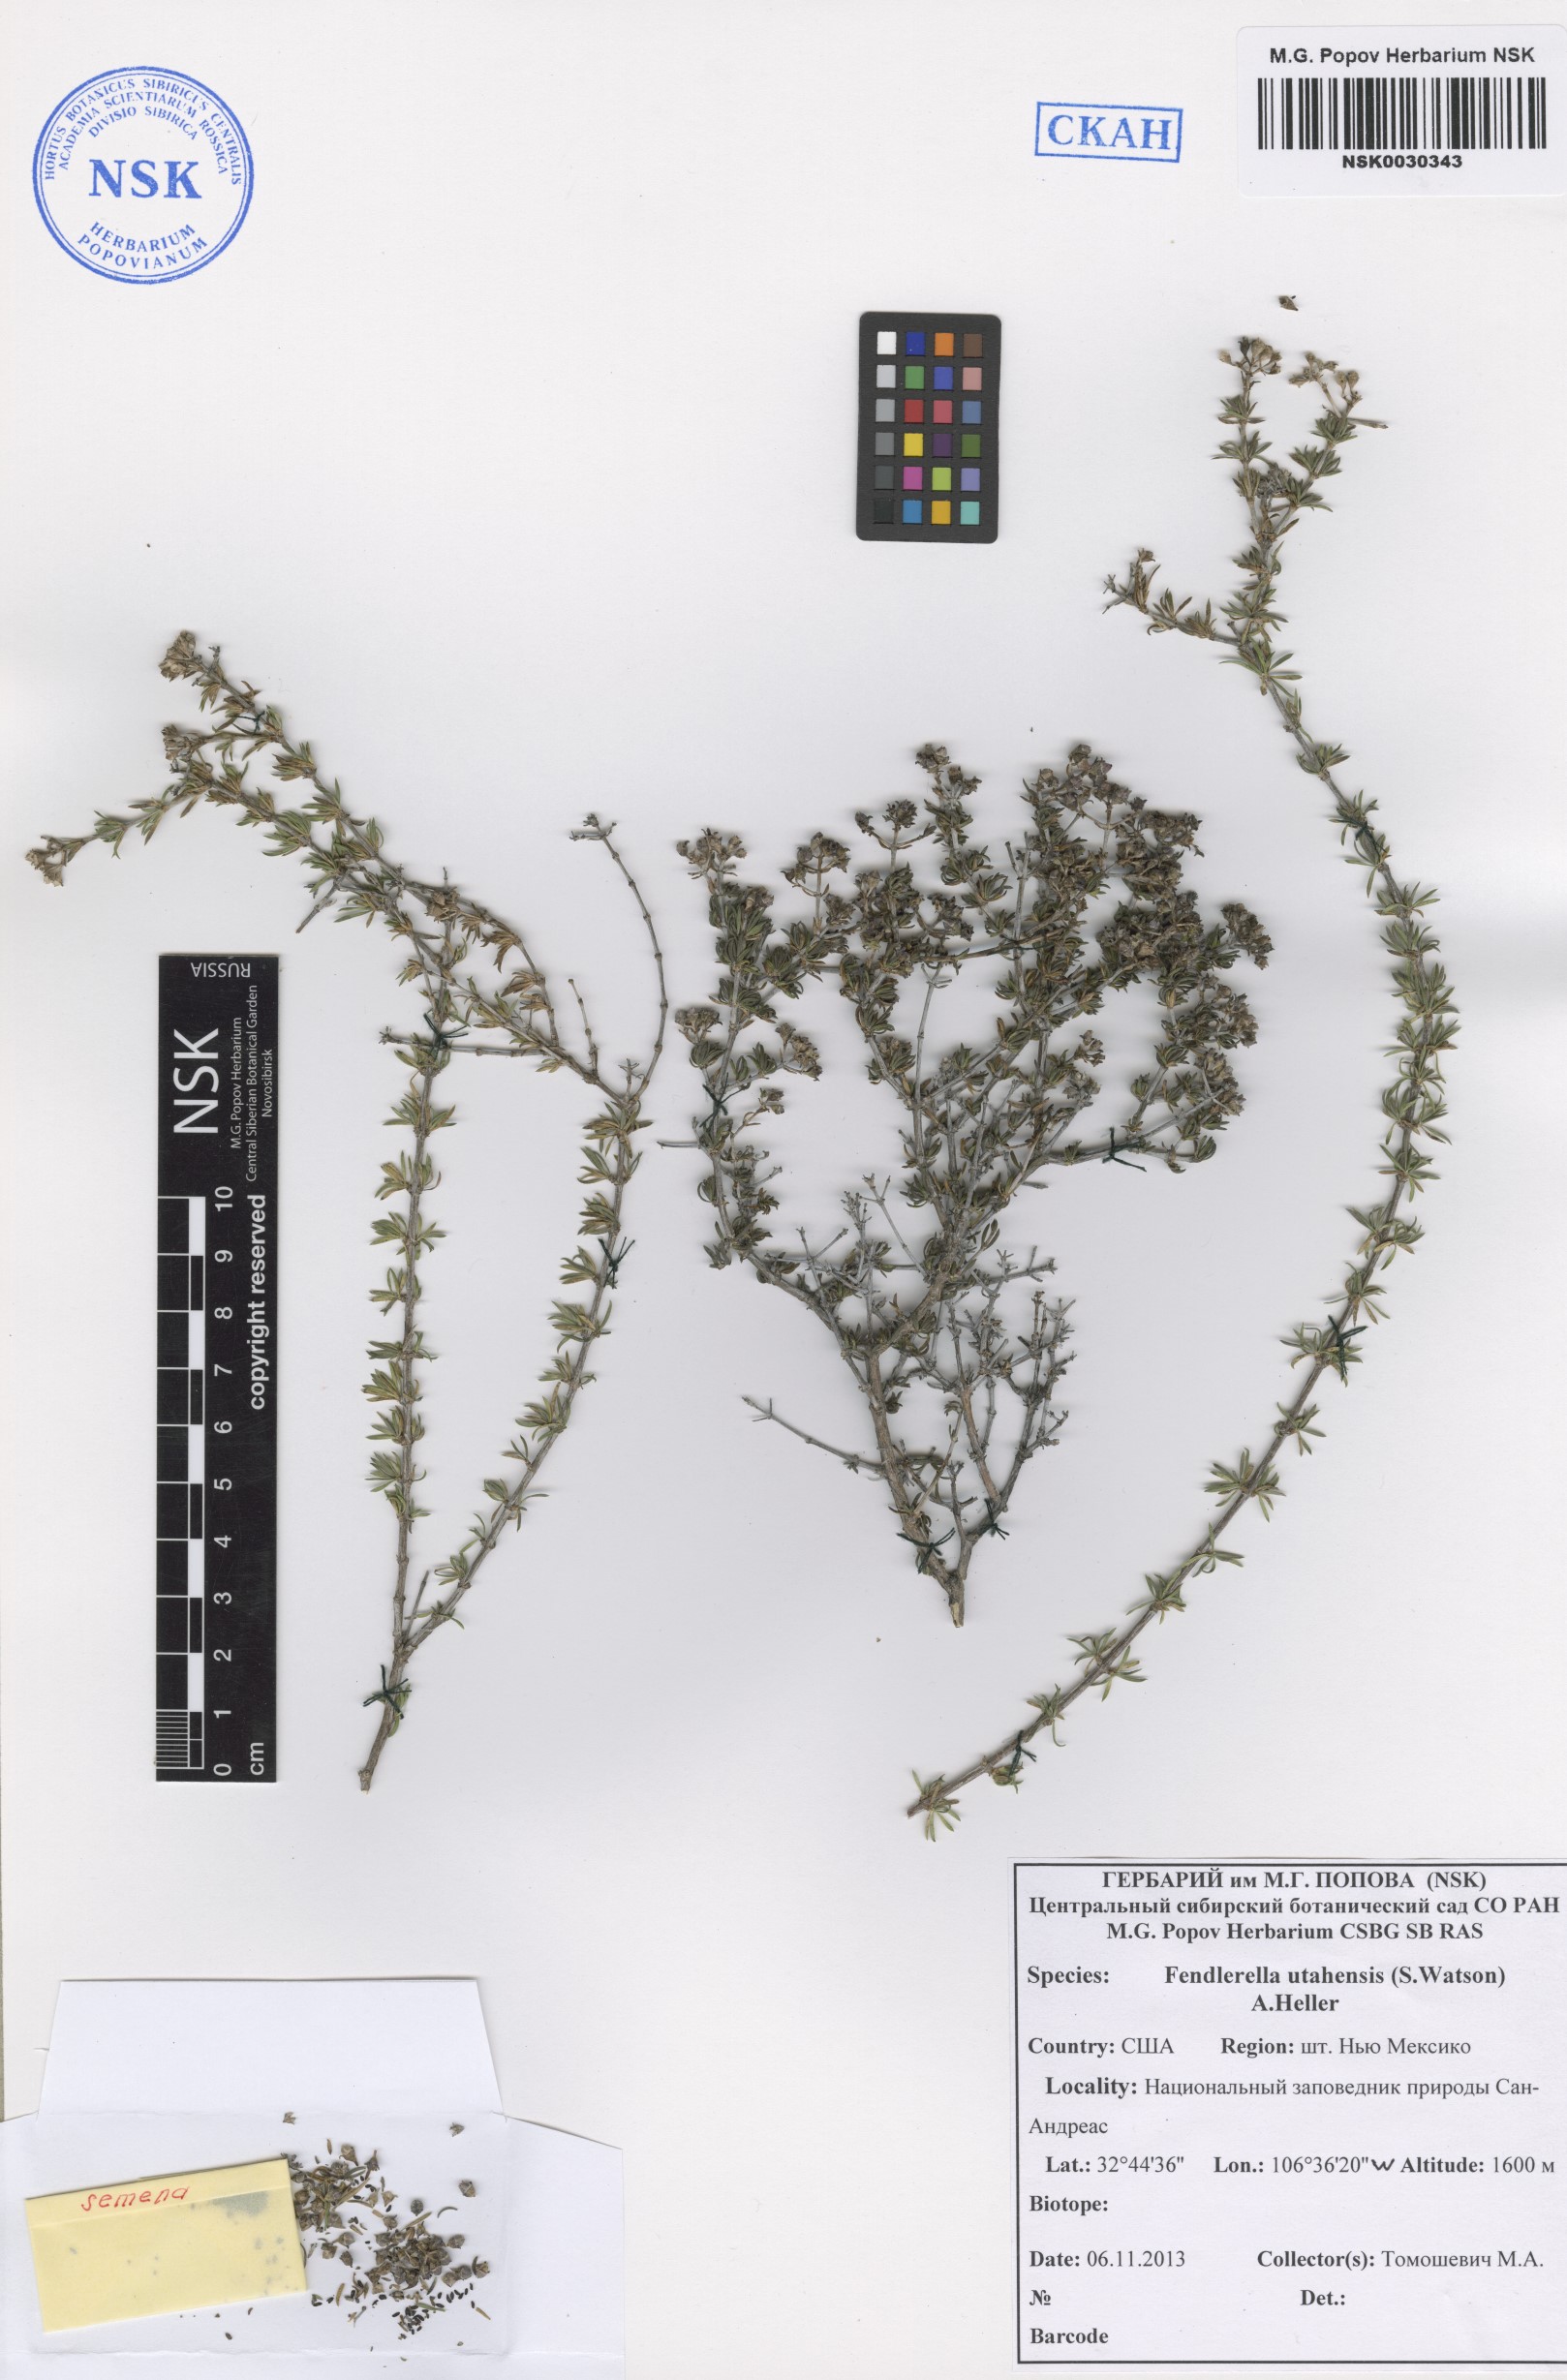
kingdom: Plantae
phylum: Tracheophyta
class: Magnoliopsida
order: Cornales
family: Hydrangeaceae
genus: Fendlerella
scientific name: Fendlerella utahensis
